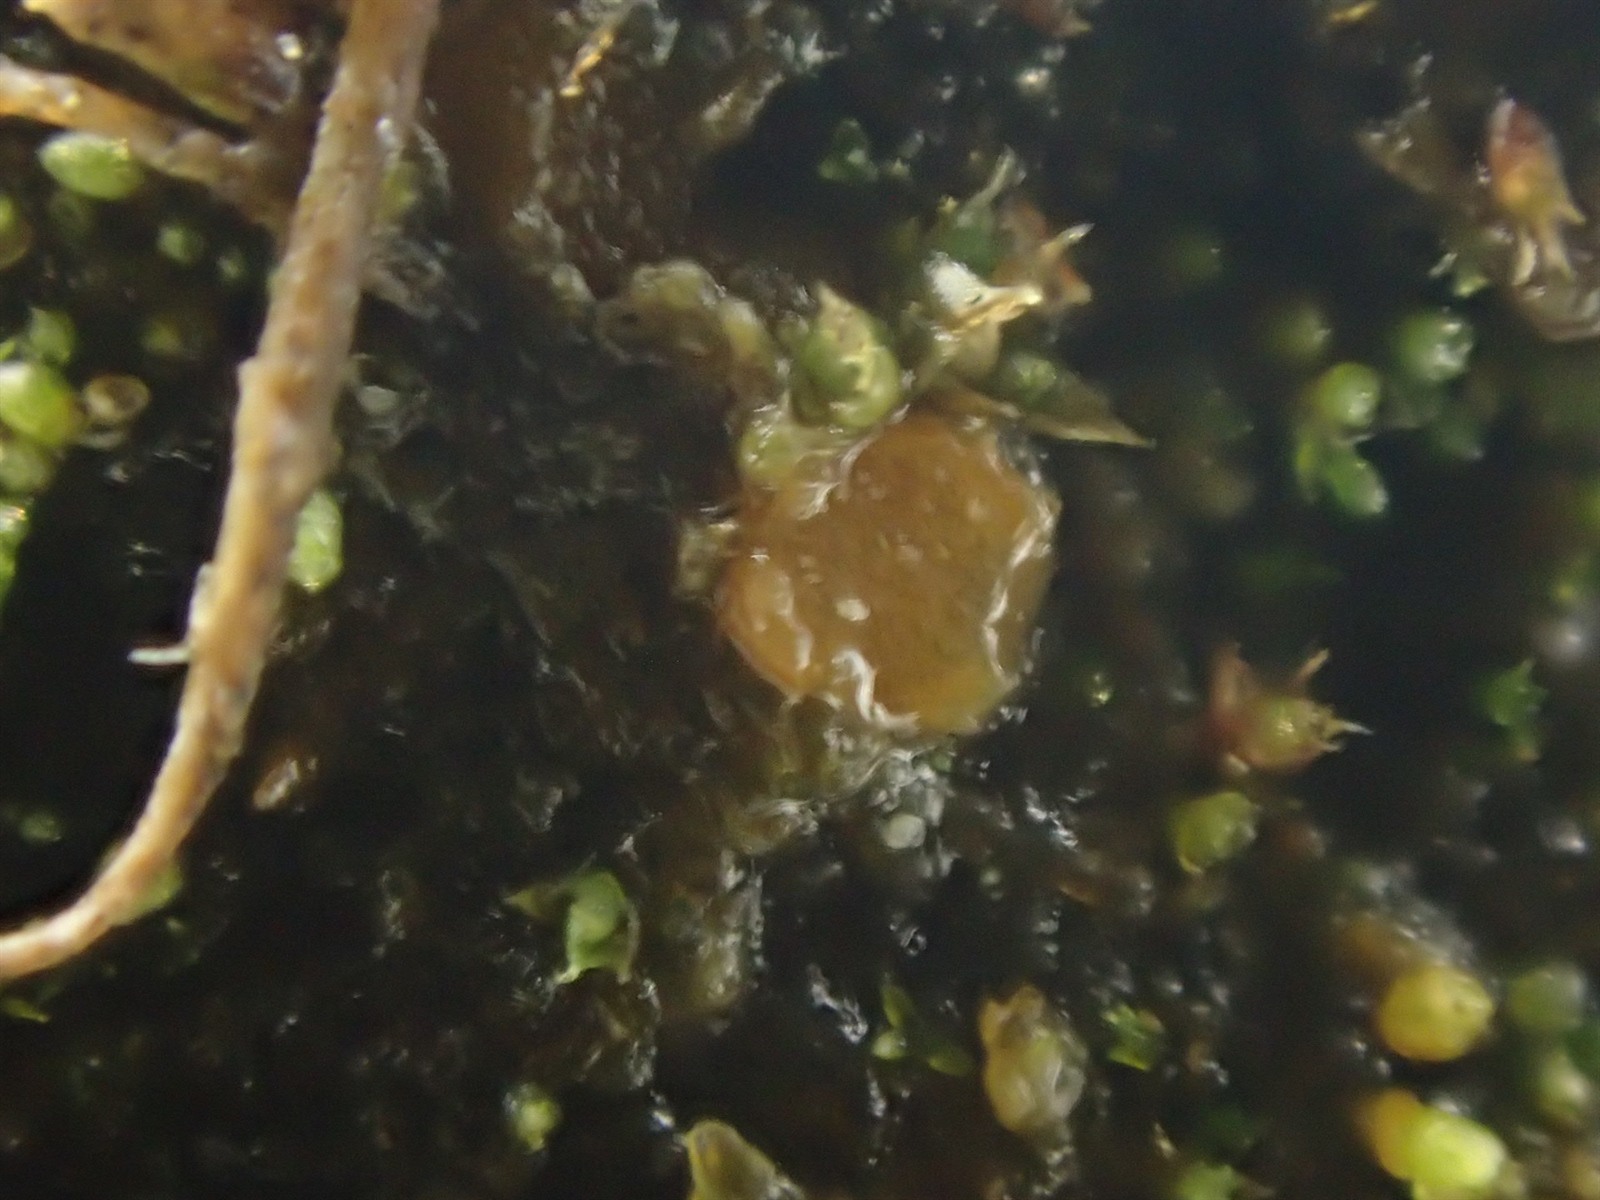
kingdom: Fungi
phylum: Ascomycota
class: Pezizomycetes
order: Pezizales
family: Pyronemataceae
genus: Byssonectria
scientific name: Byssonectria tetraspora
